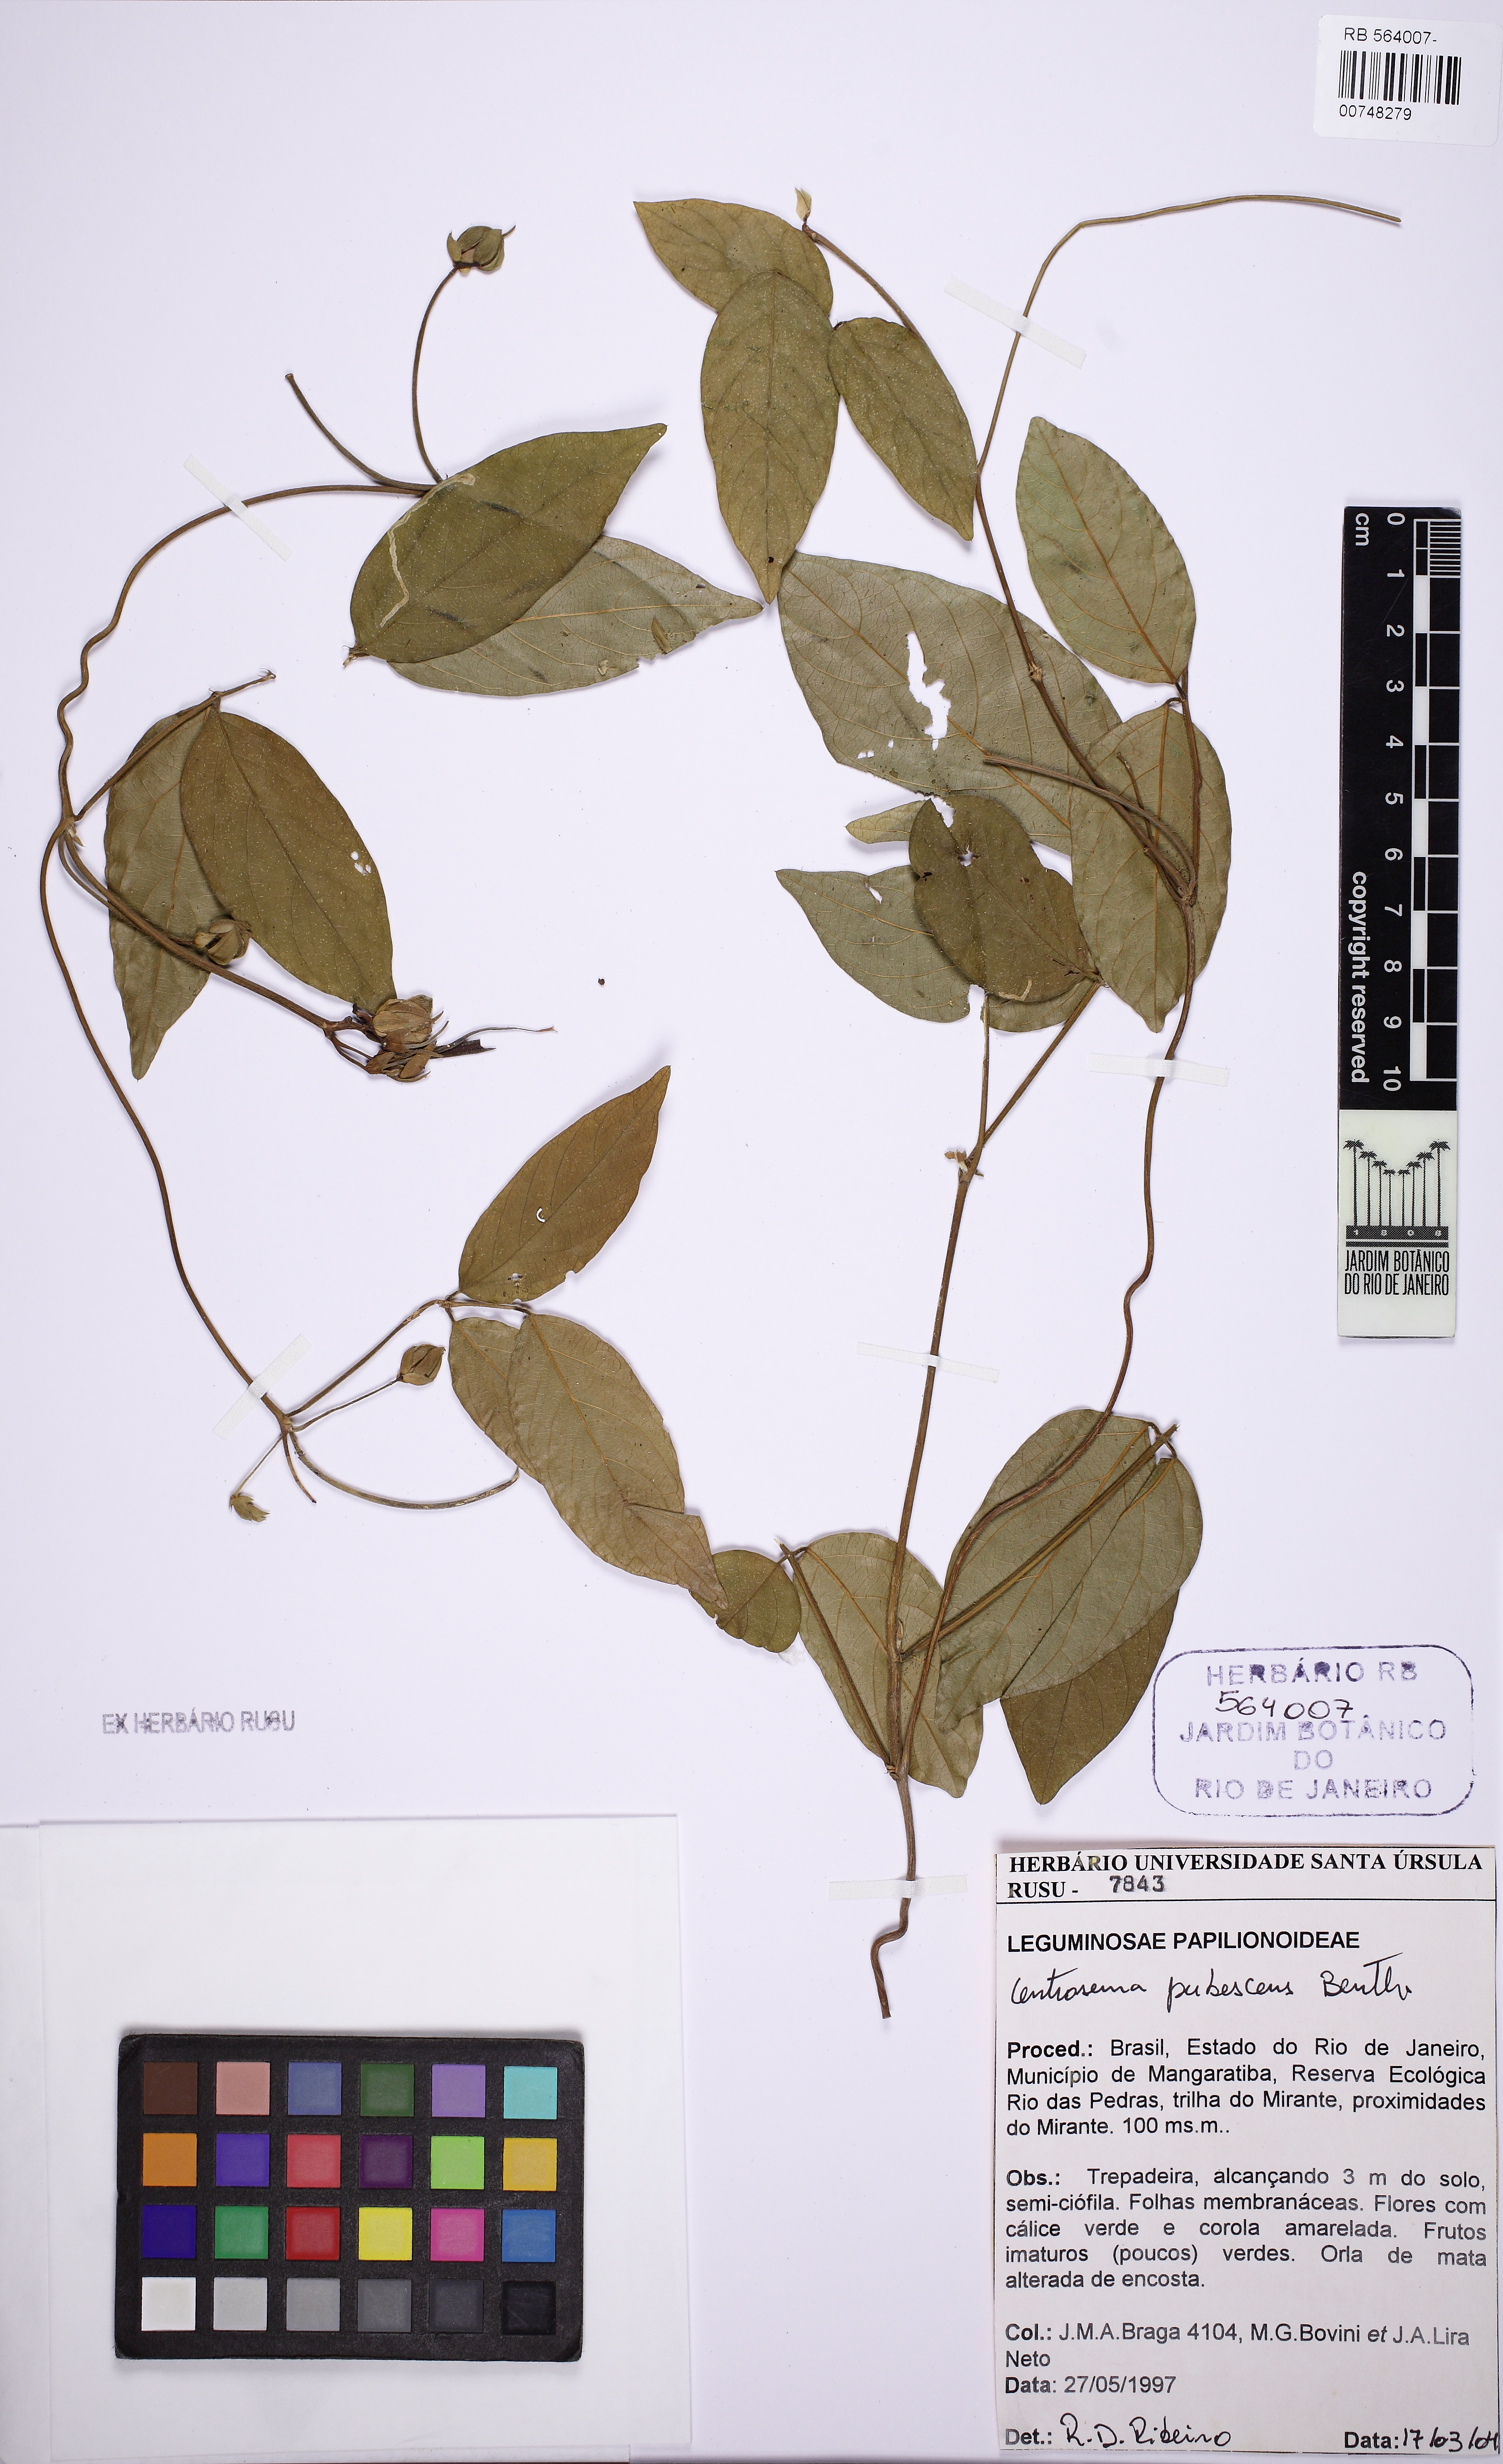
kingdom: Plantae
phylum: Tracheophyta
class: Magnoliopsida
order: Fabales
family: Fabaceae
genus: Centrosema
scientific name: Centrosema pubescens
